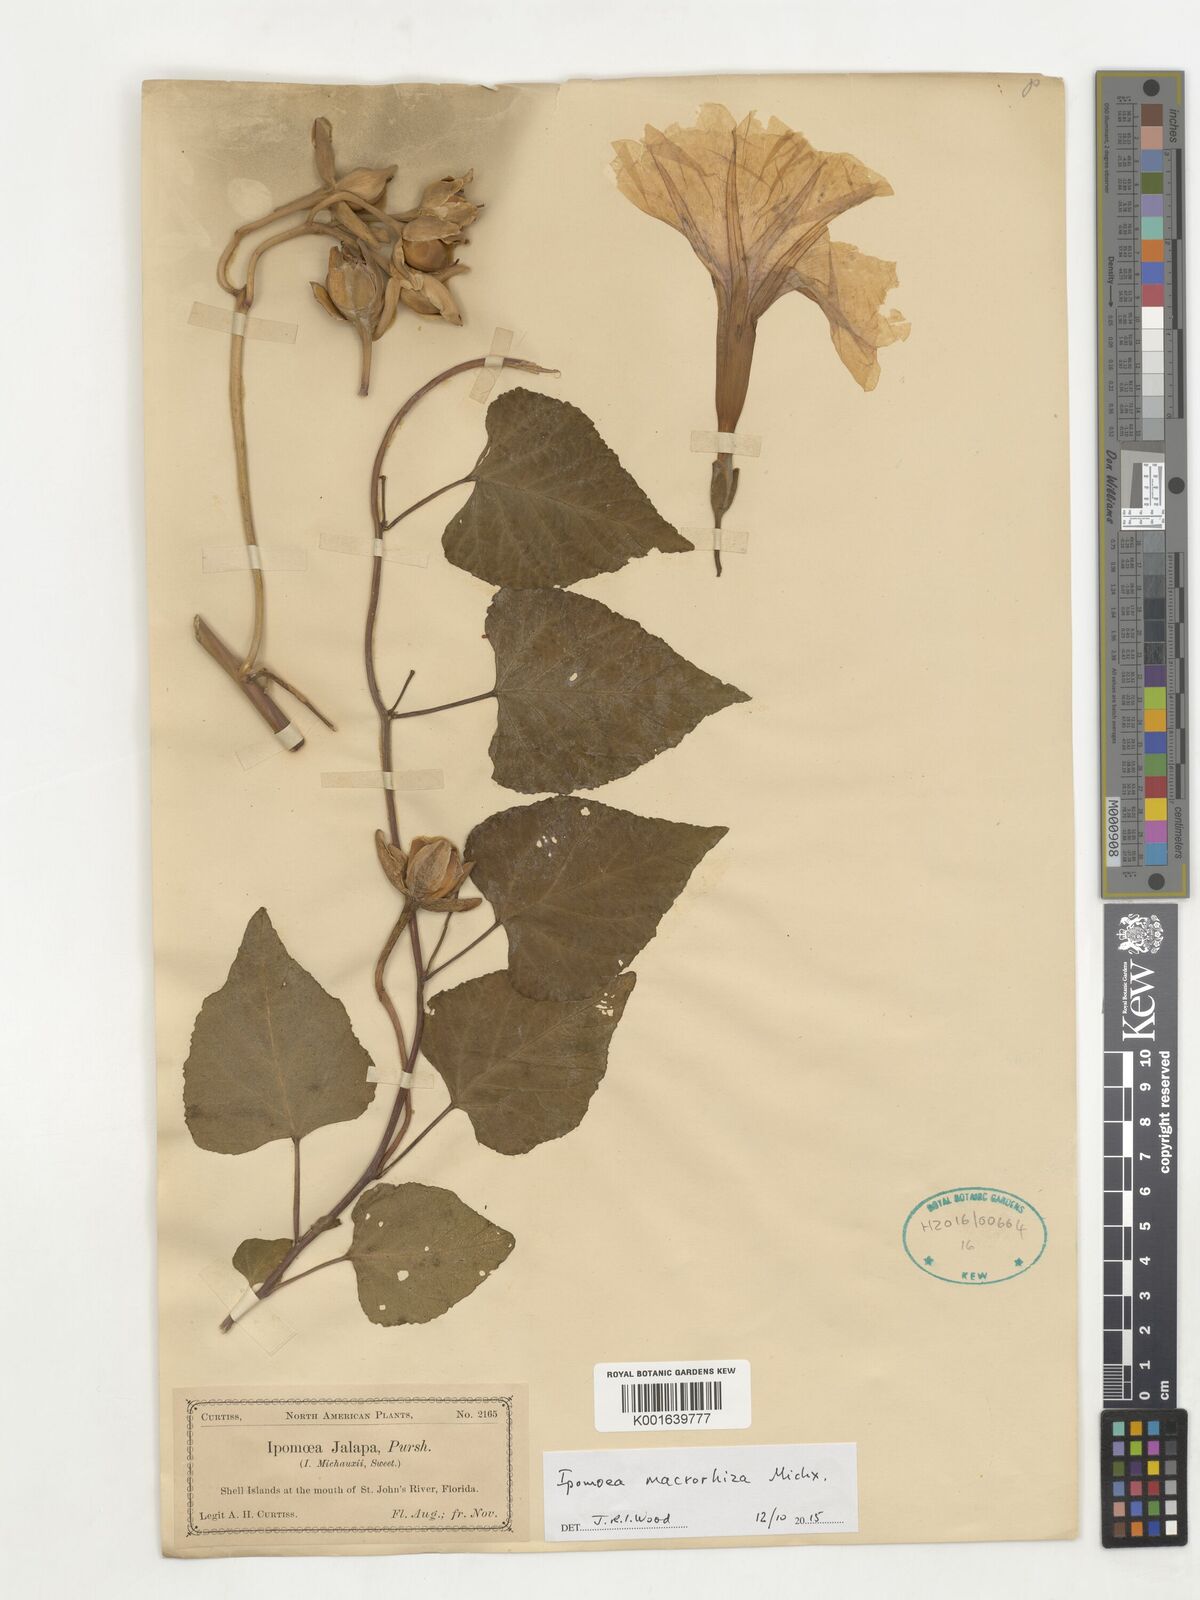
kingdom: Plantae
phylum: Tracheophyta
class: Magnoliopsida
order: Solanales
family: Convolvulaceae
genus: Ipomoea
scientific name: Ipomoea macrorhiza
